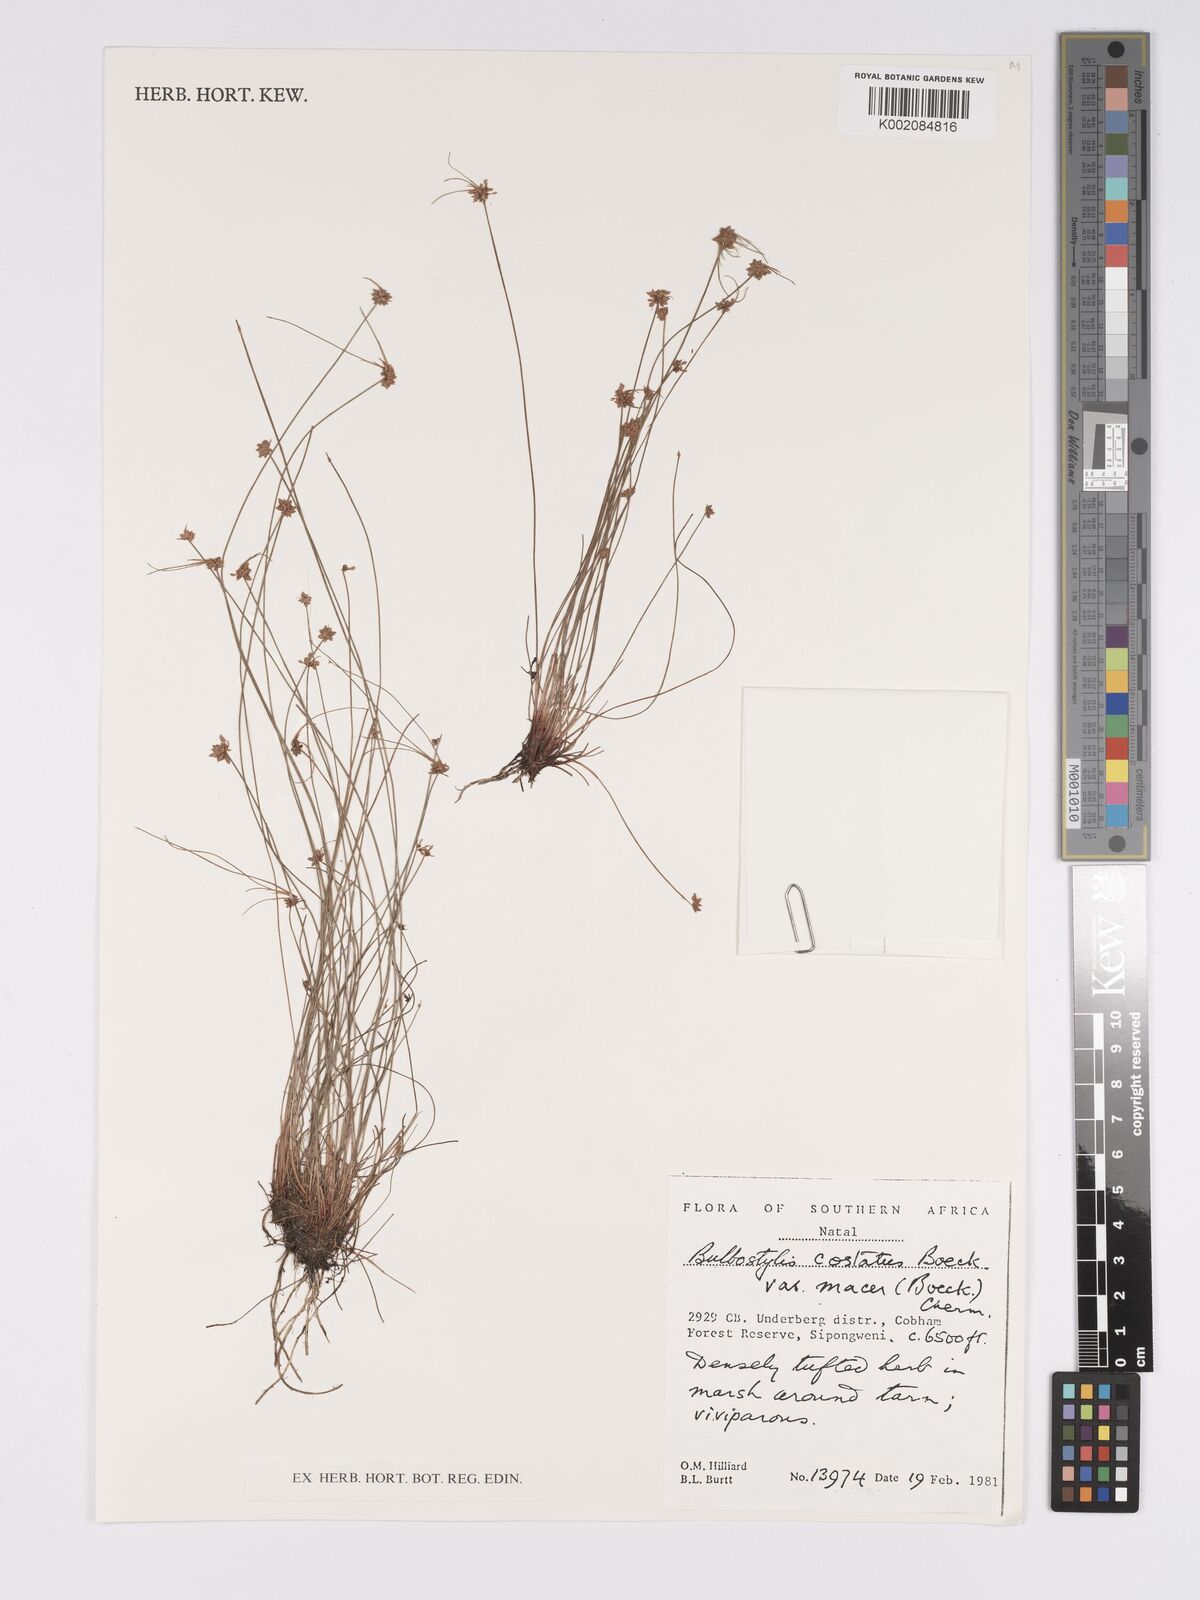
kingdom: Plantae
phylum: Tracheophyta
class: Liliopsida
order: Poales
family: Cyperaceae
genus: Bulbostylis
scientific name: Bulbostylis
